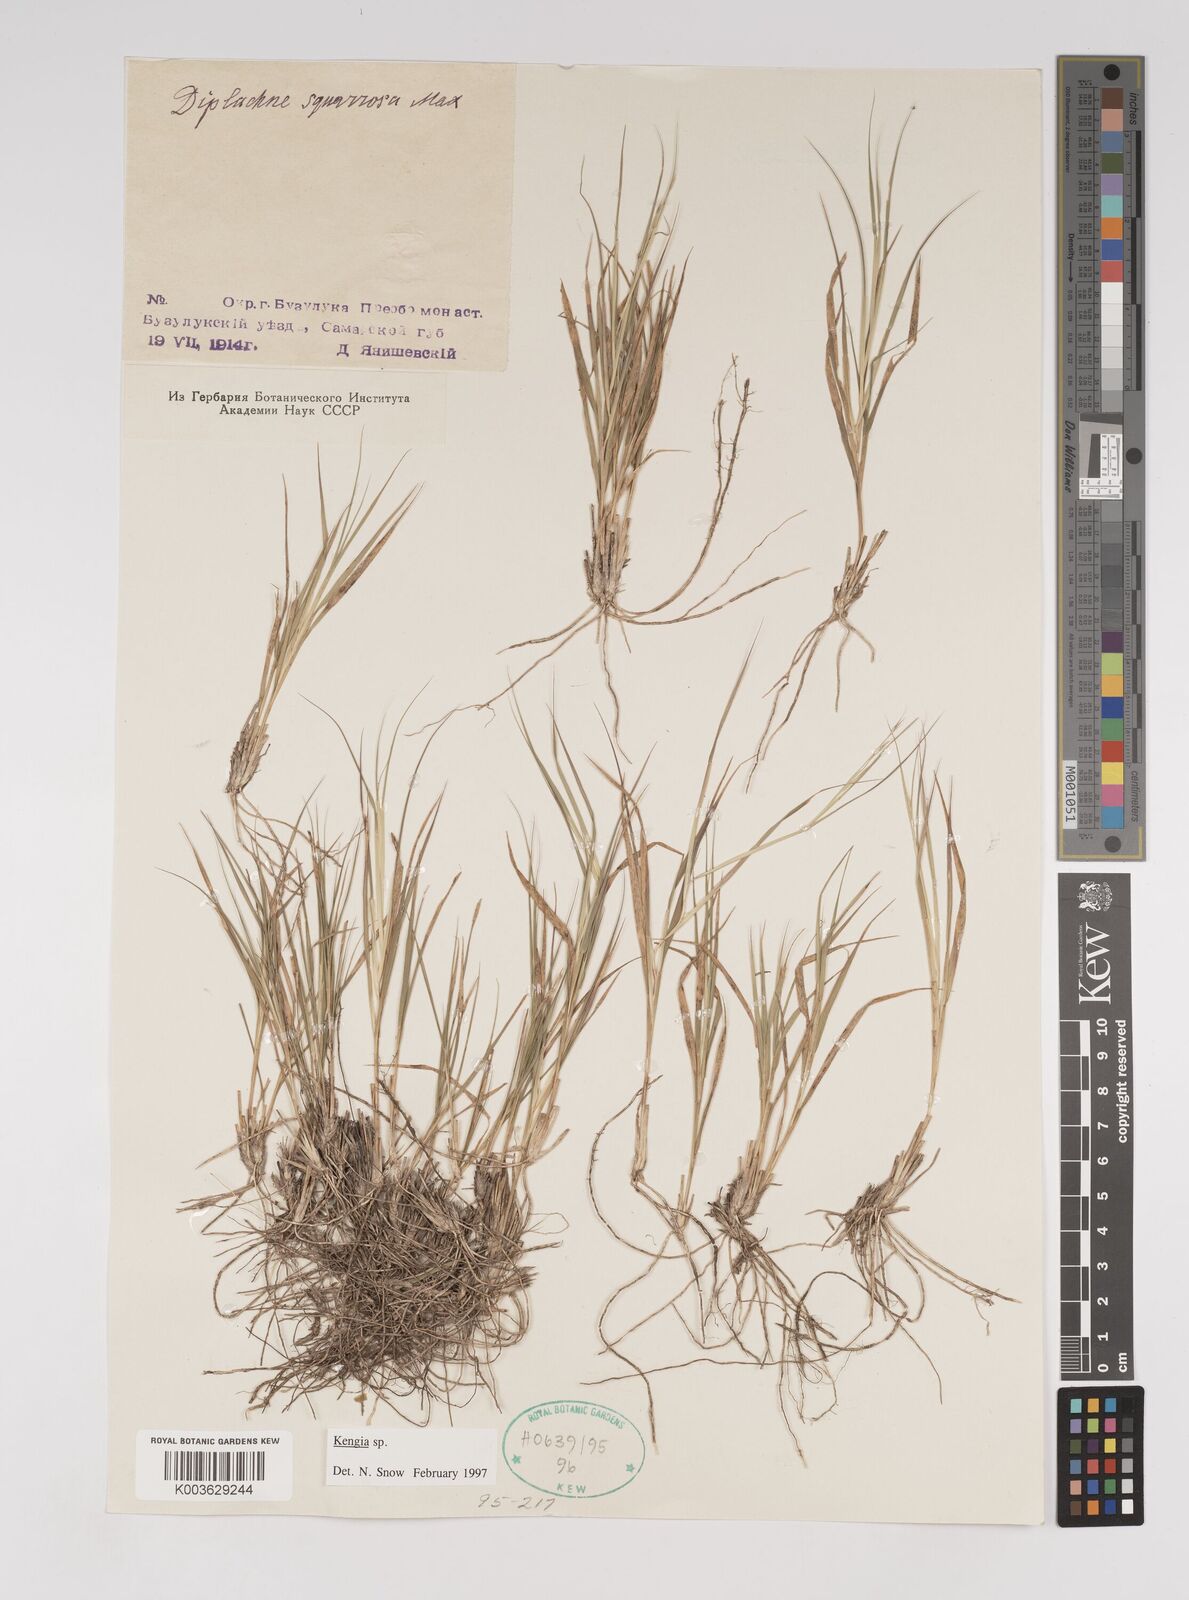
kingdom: Plantae
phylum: Tracheophyta
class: Liliopsida
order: Poales
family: Poaceae
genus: Cleistogenes
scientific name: Cleistogenes squarrosa
